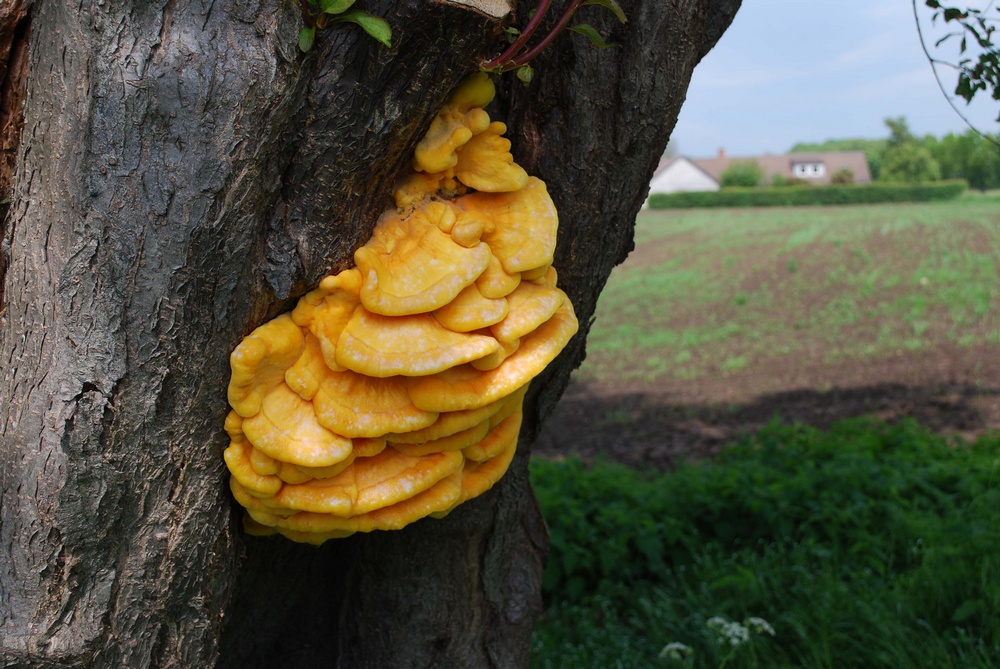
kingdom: Fungi
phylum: Basidiomycota
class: Agaricomycetes
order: Polyporales
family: Laetiporaceae
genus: Laetiporus
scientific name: Laetiporus sulphureus
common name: svovlporesvamp
